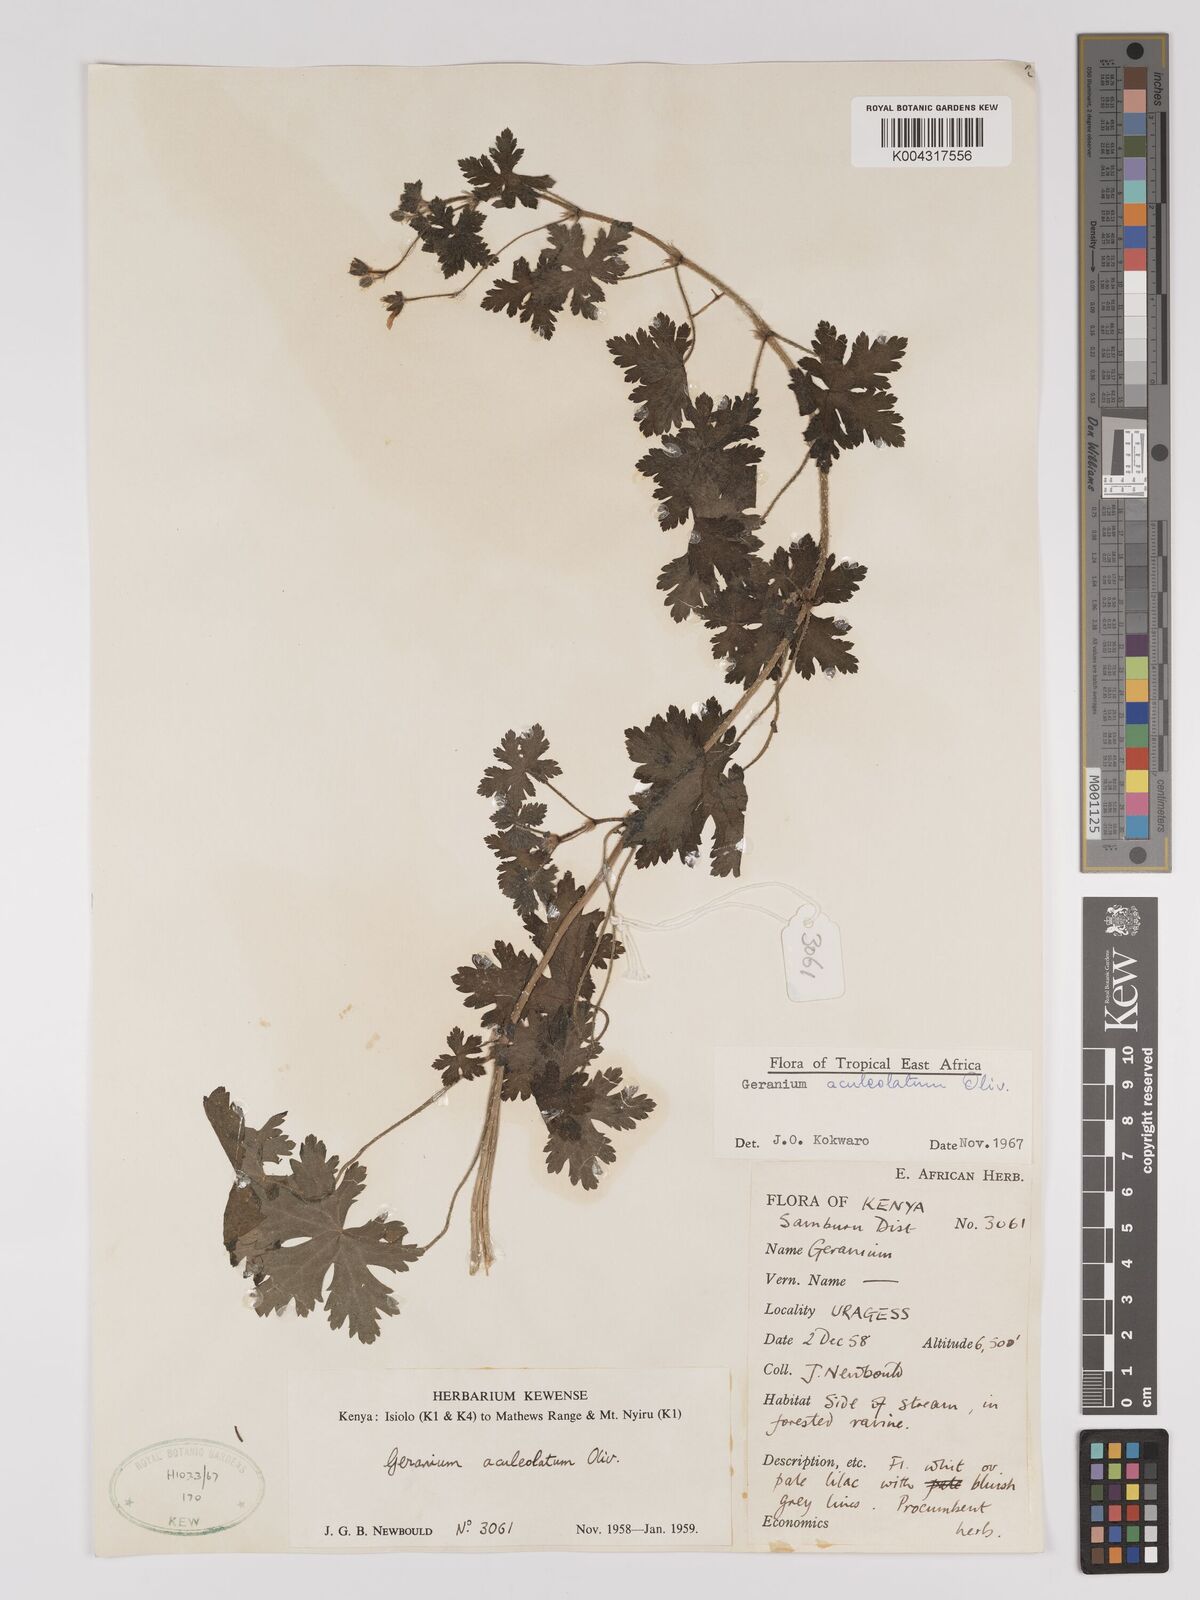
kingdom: Plantae
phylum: Tracheophyta
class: Magnoliopsida
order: Geraniales
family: Geraniaceae
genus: Geranium
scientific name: Geranium aculeolatum
